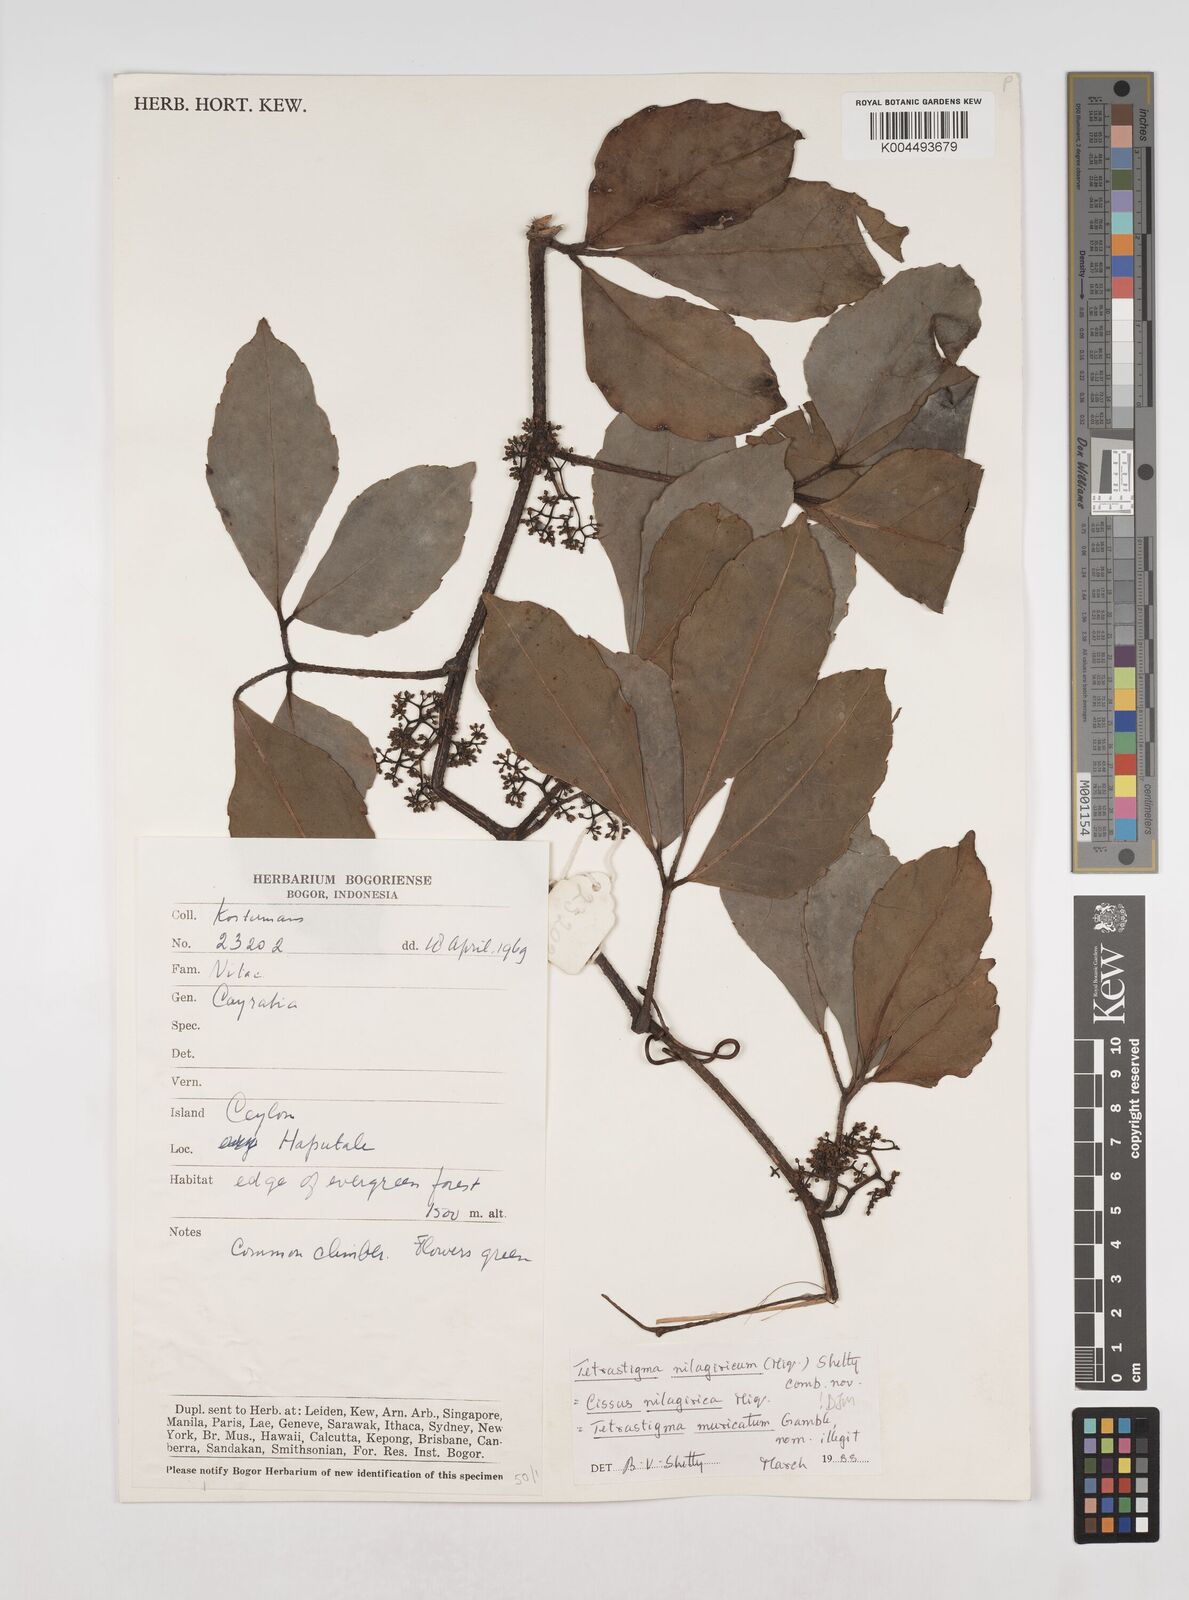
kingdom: Plantae
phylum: Tracheophyta
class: Magnoliopsida
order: Vitales
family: Vitaceae
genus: Tetrastigma
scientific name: Tetrastigma leucostaphylum
